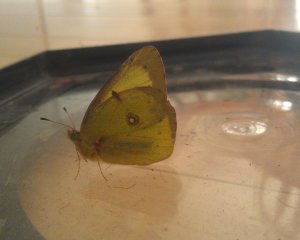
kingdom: Animalia
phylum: Arthropoda
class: Insecta
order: Lepidoptera
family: Pieridae
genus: Colias
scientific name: Colias philodice
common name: Clouded Sulphur
